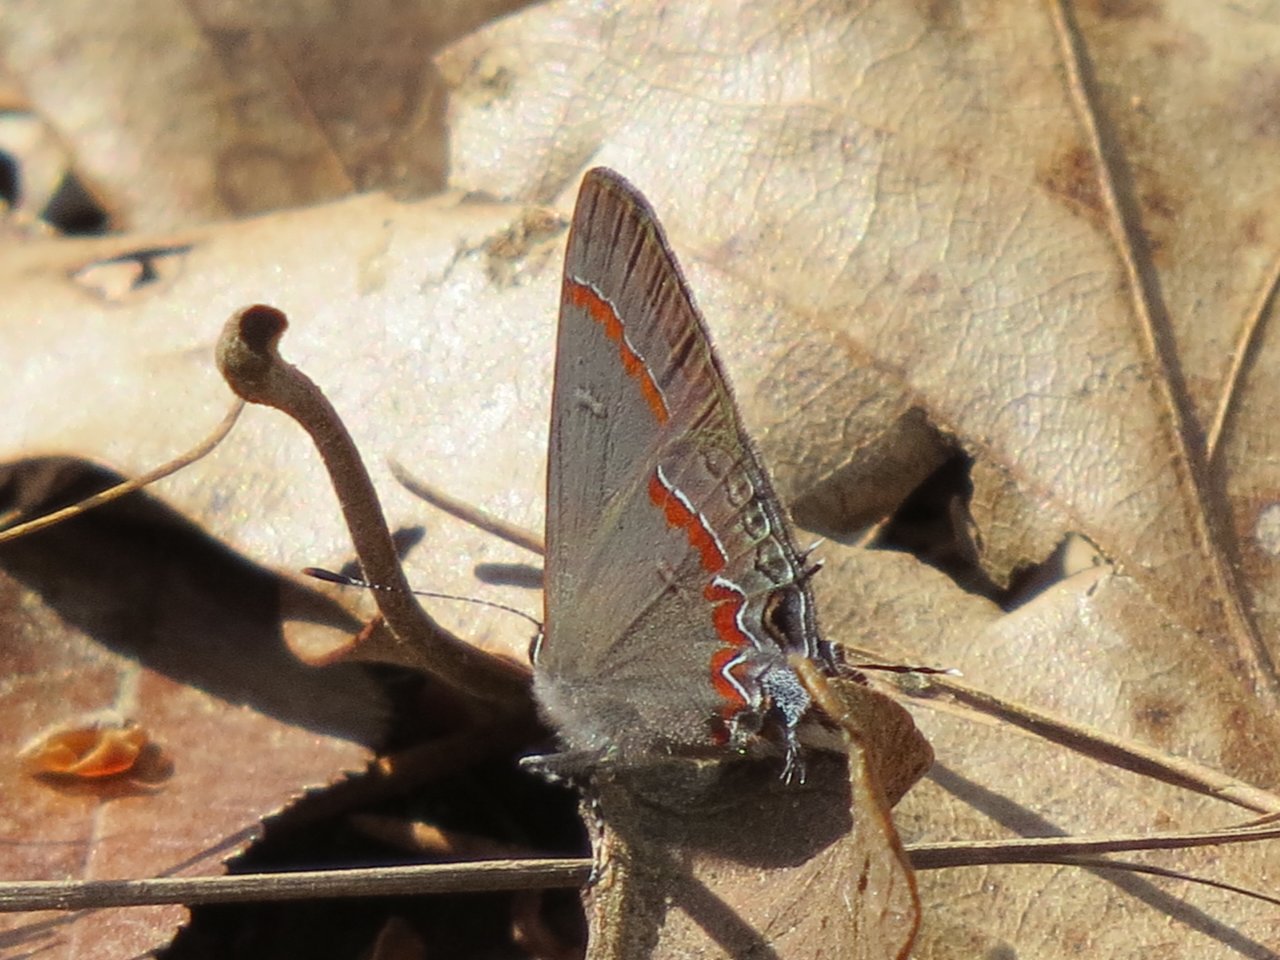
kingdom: Animalia
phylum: Arthropoda
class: Insecta
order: Lepidoptera
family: Lycaenidae
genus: Calycopis
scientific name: Calycopis cecrops
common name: Red-banded Hairstreak
